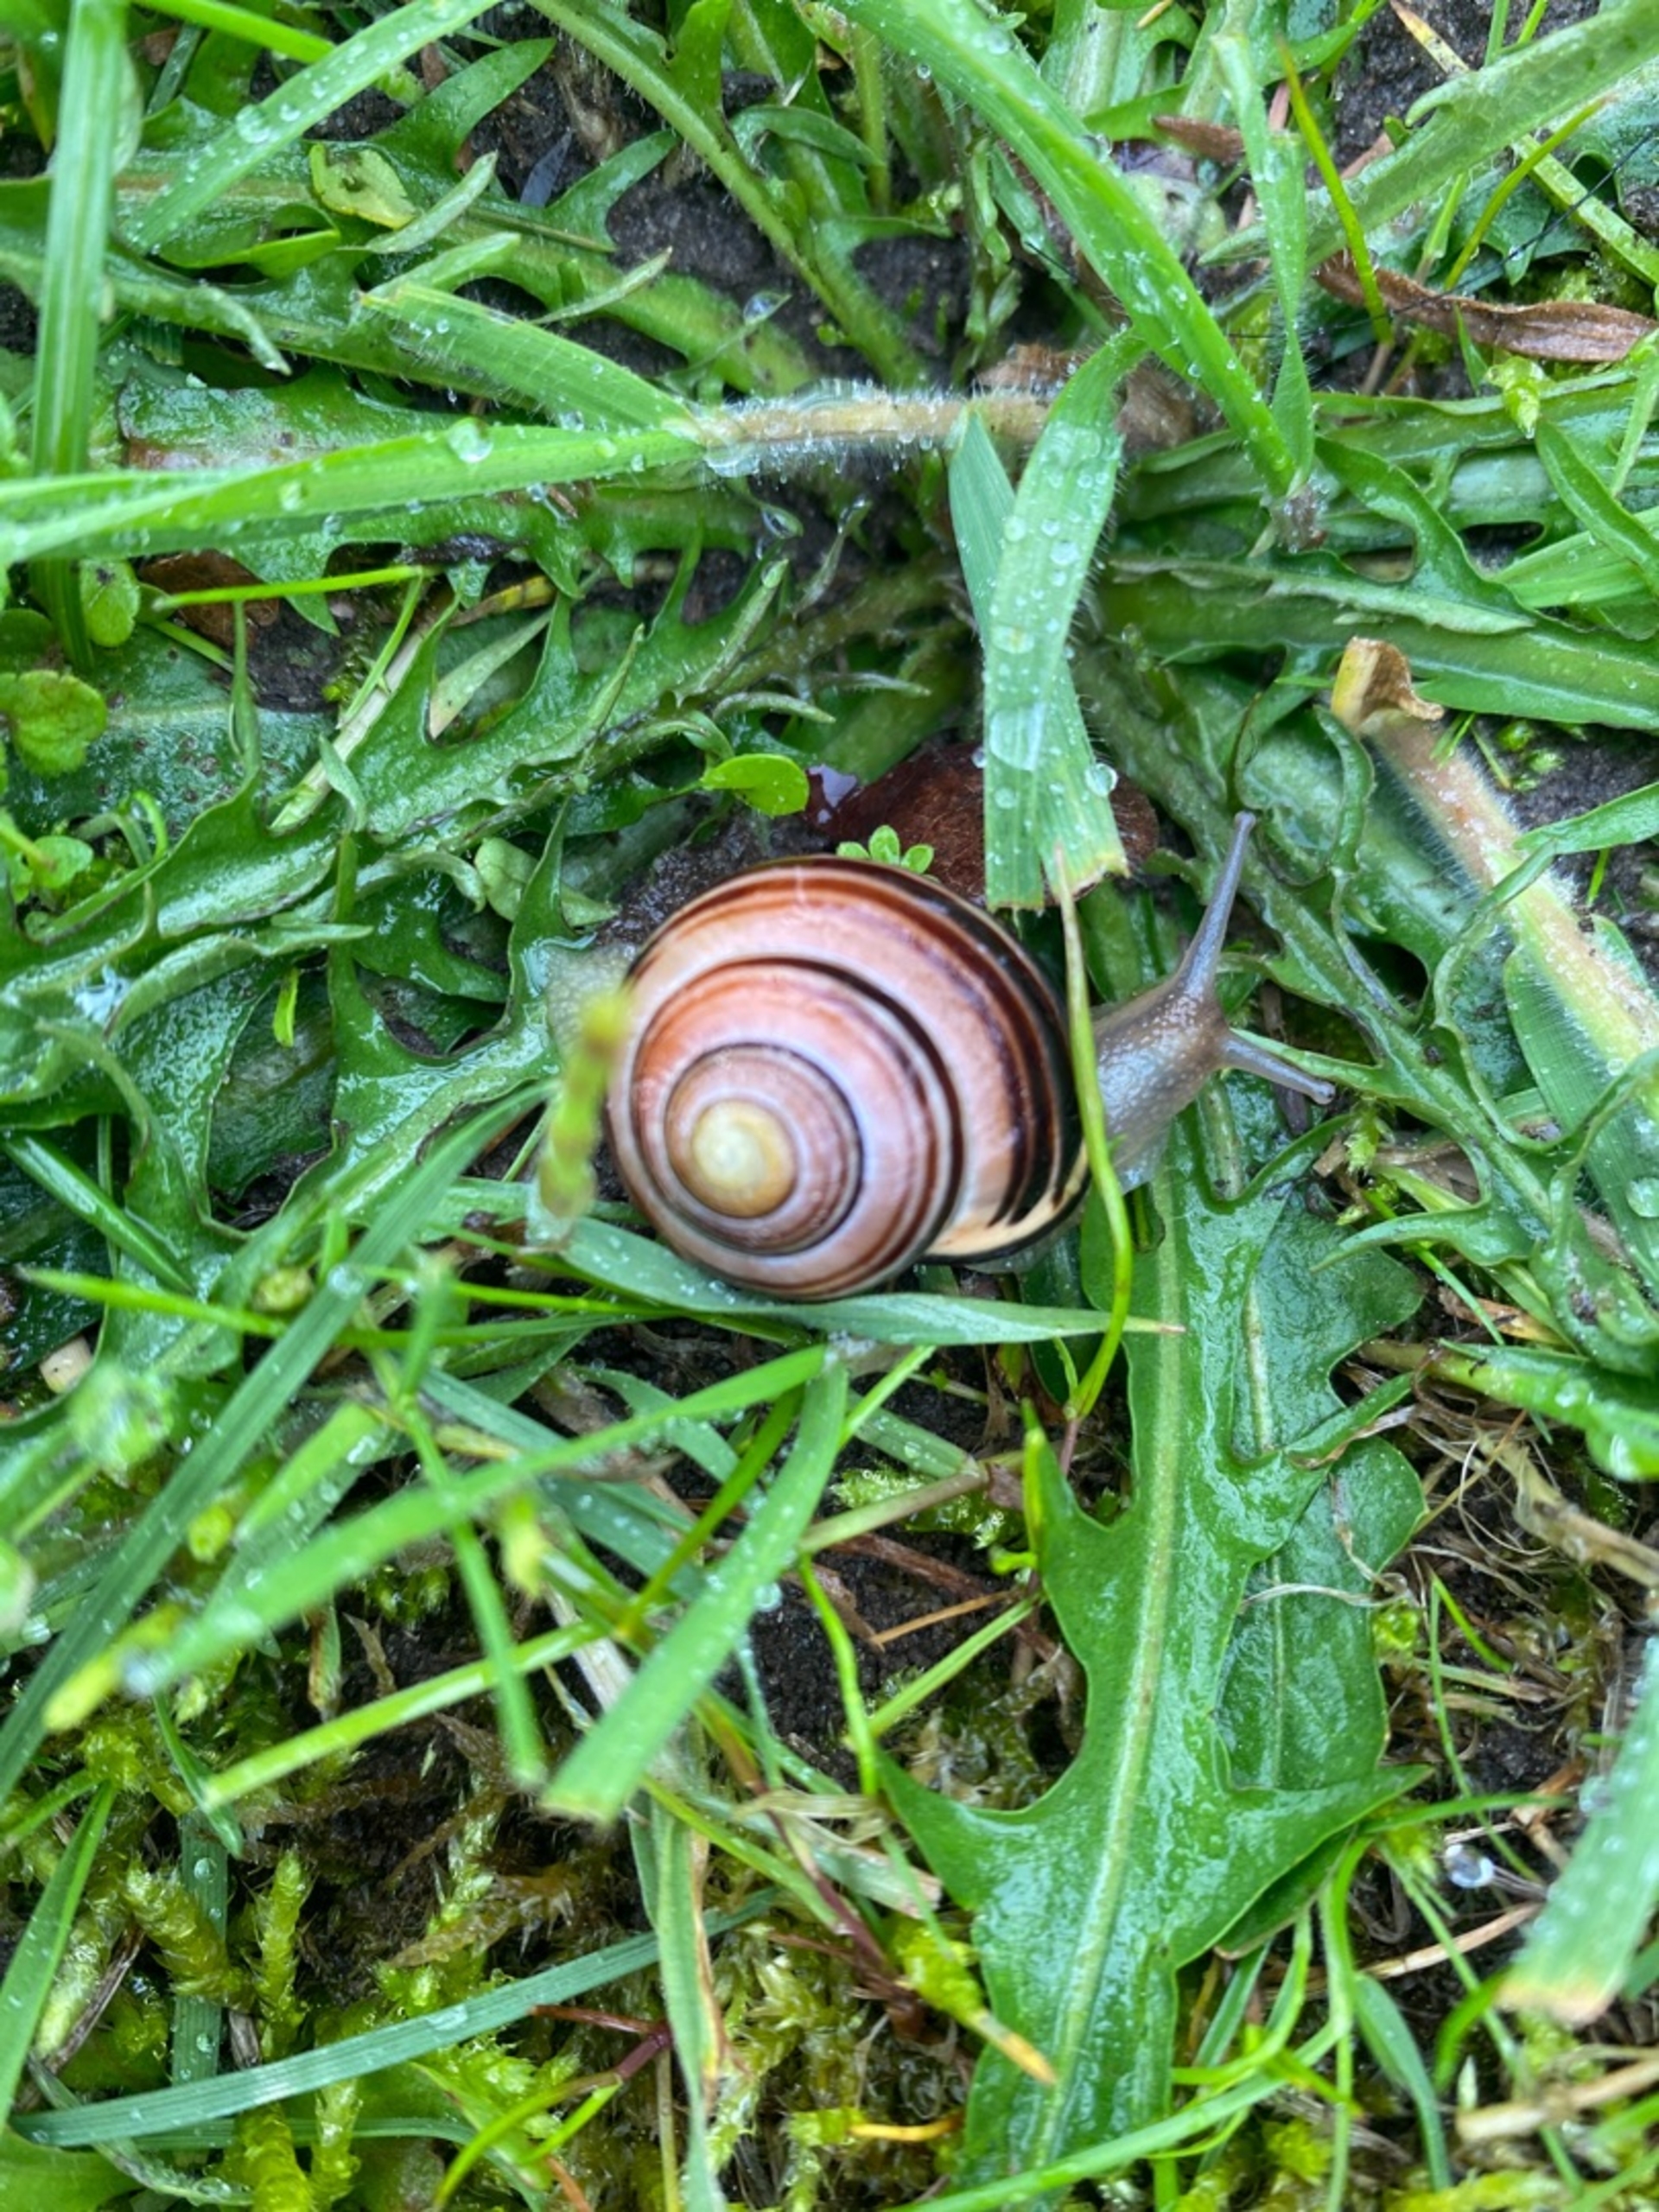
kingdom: Animalia
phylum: Mollusca
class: Gastropoda
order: Stylommatophora
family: Helicidae
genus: Cepaea
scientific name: Cepaea nemoralis
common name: Lundsnegl
